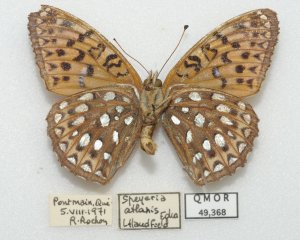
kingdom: Animalia
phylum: Arthropoda
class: Insecta
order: Lepidoptera
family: Nymphalidae
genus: Speyeria
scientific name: Speyeria atlantis
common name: Atlantis Fritillary
